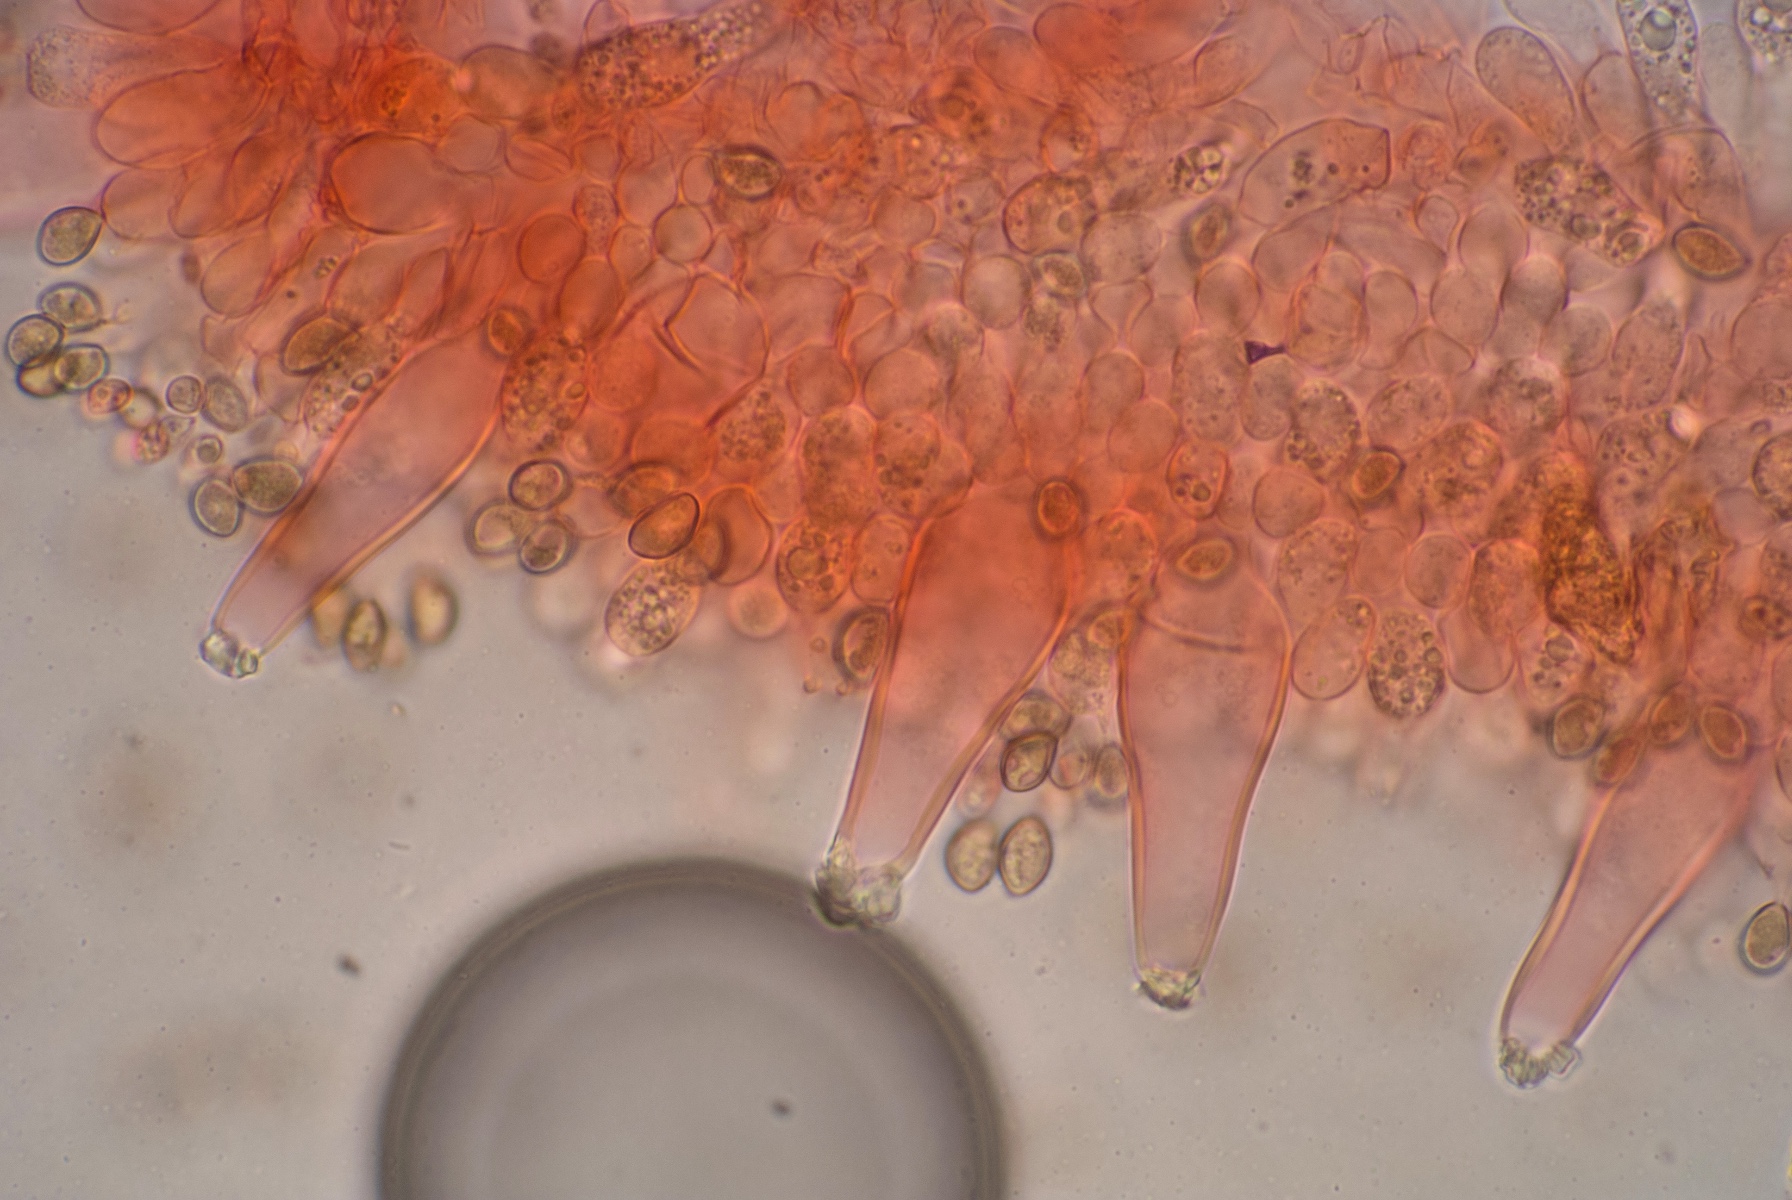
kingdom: Fungi
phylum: Basidiomycota
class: Agaricomycetes
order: Agaricales
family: Inocybaceae
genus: Inocybe
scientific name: Inocybe jucunda
